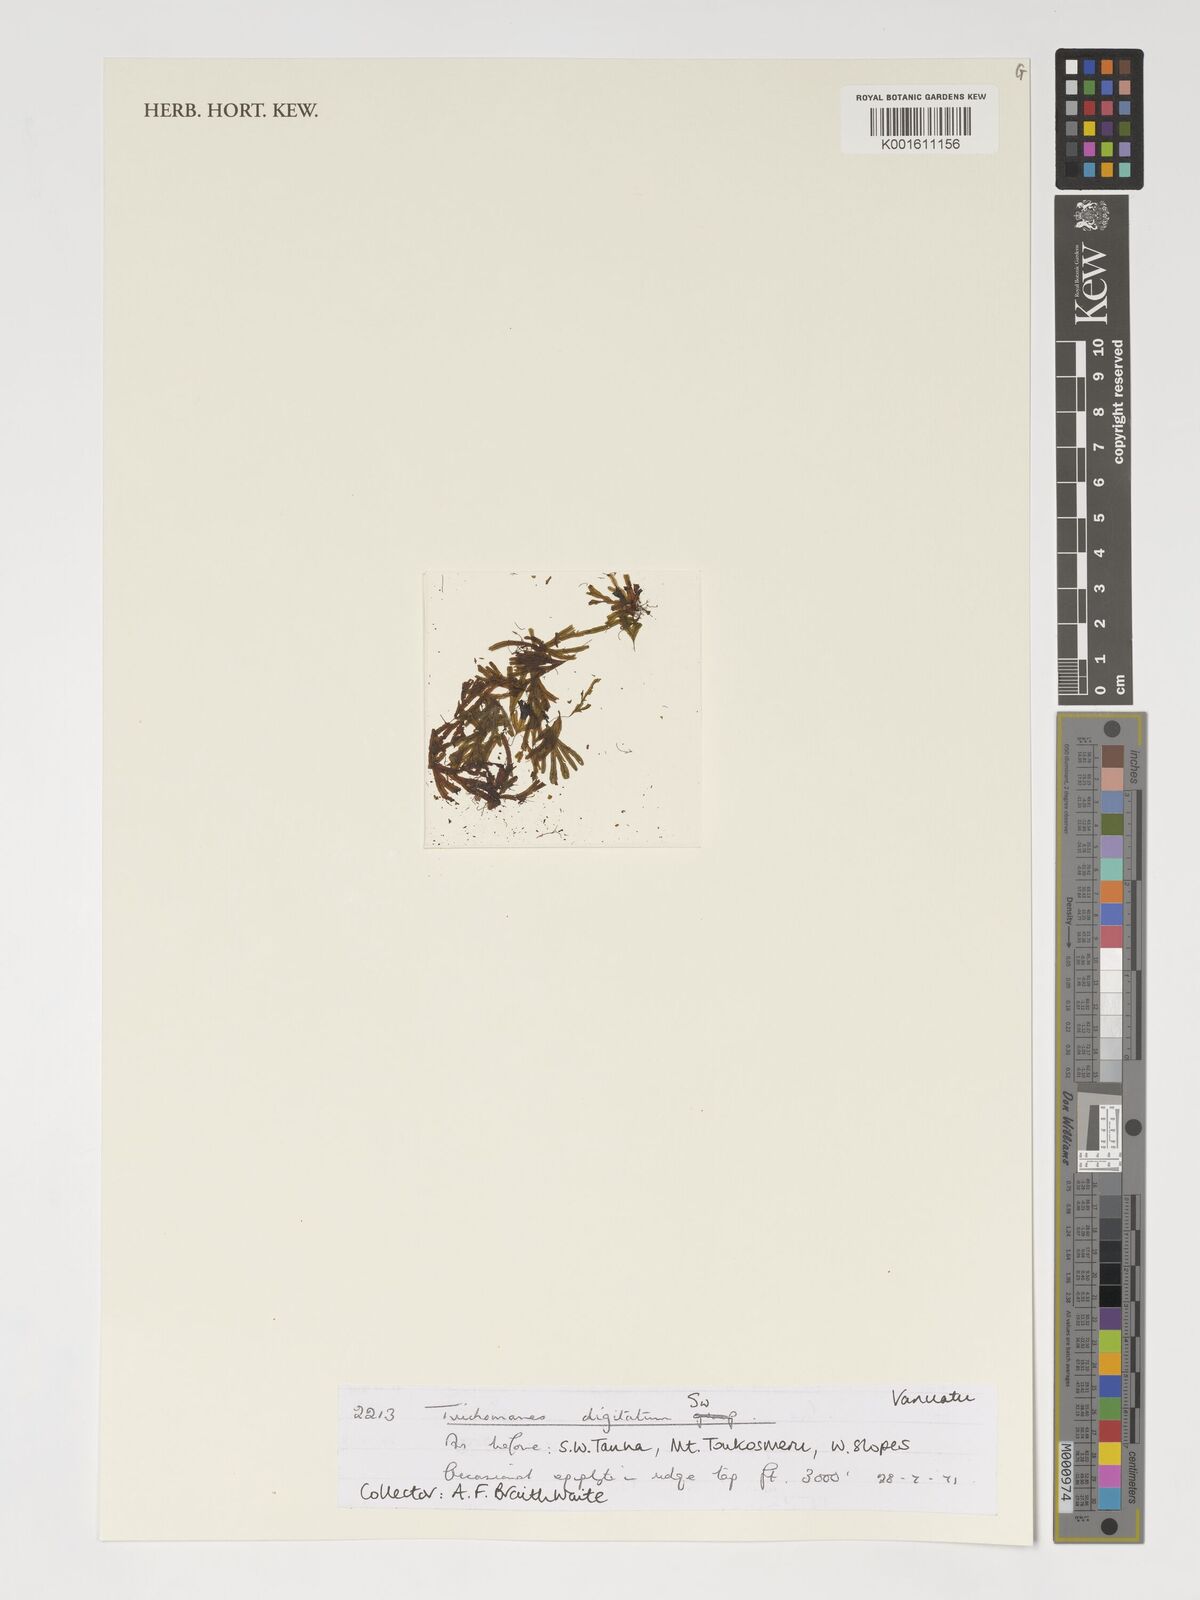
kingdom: Plantae
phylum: Tracheophyta
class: Polypodiopsida
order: Hymenophyllales
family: Hymenophyllaceae
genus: Hymenophyllum
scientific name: Hymenophyllum digitatum
